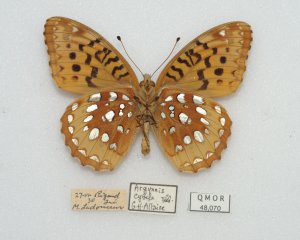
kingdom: Animalia
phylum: Arthropoda
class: Insecta
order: Lepidoptera
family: Nymphalidae
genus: Speyeria
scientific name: Speyeria cybele
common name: Great Spangled Fritillary
